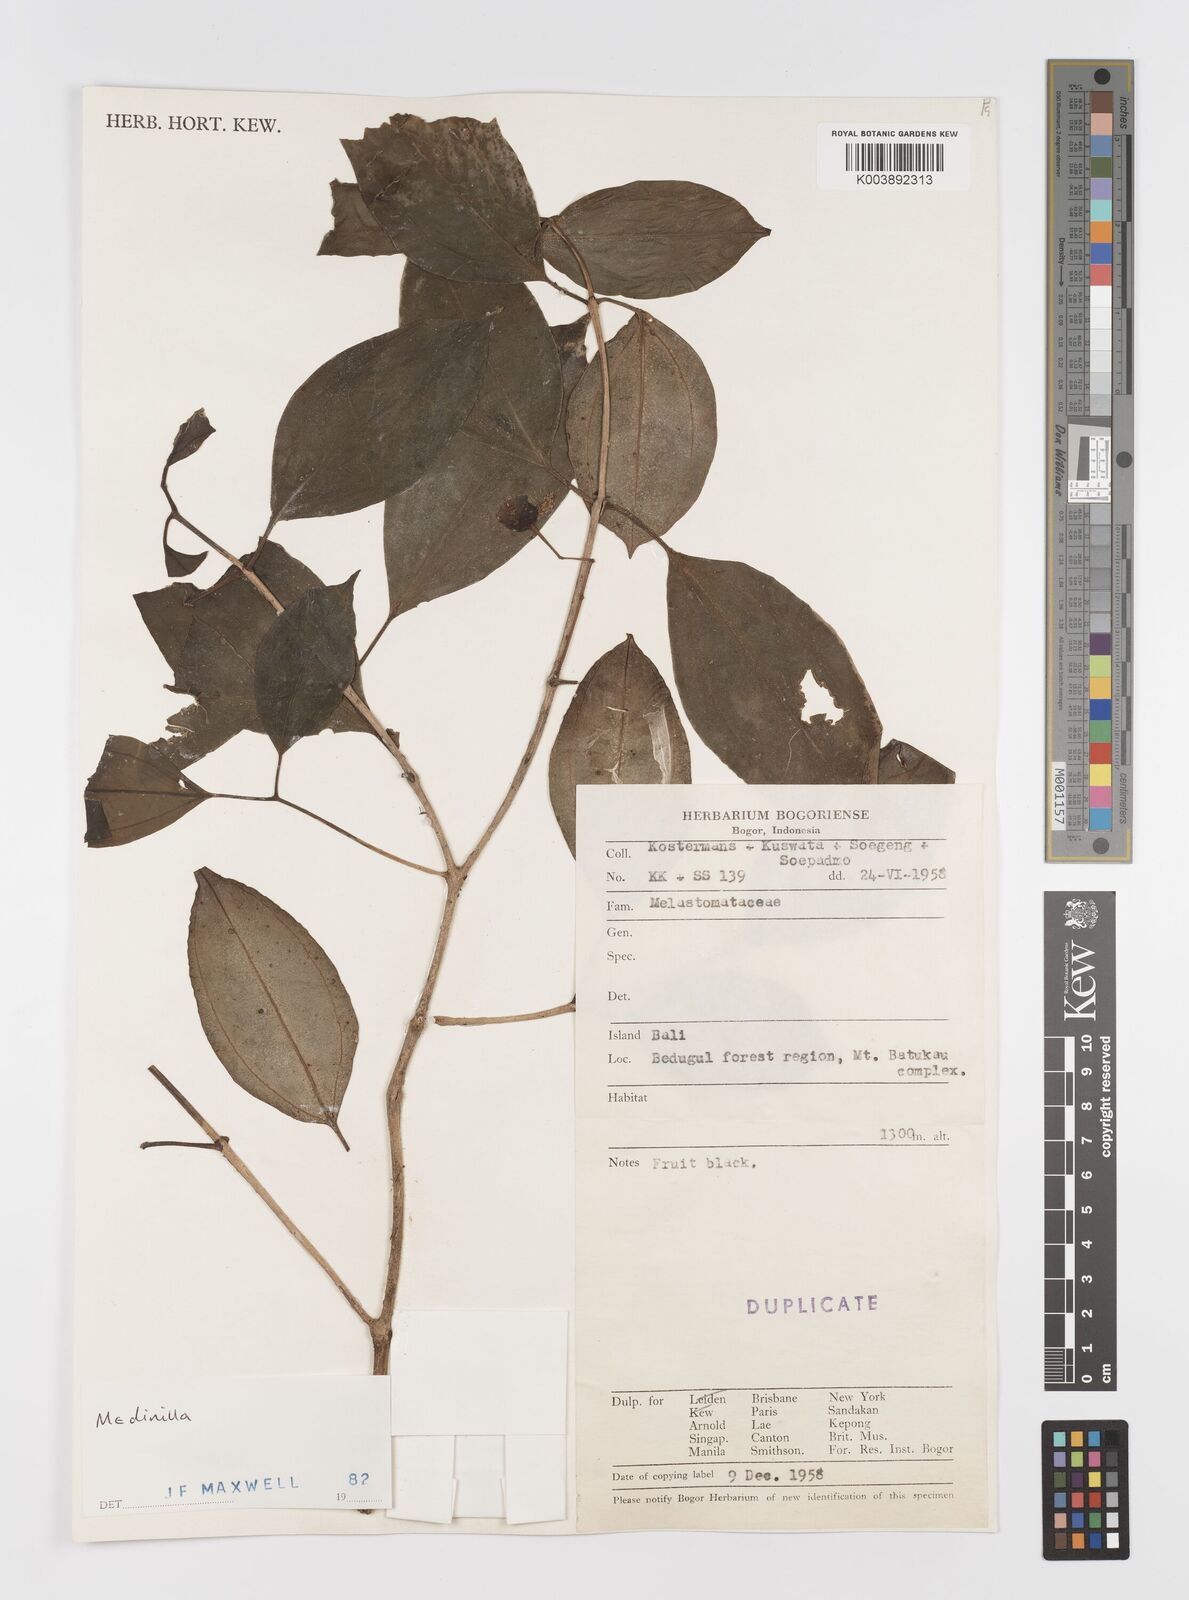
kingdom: Plantae
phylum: Tracheophyta
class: Magnoliopsida
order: Myrtales
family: Melastomataceae
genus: Medinilla
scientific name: Medinilla
